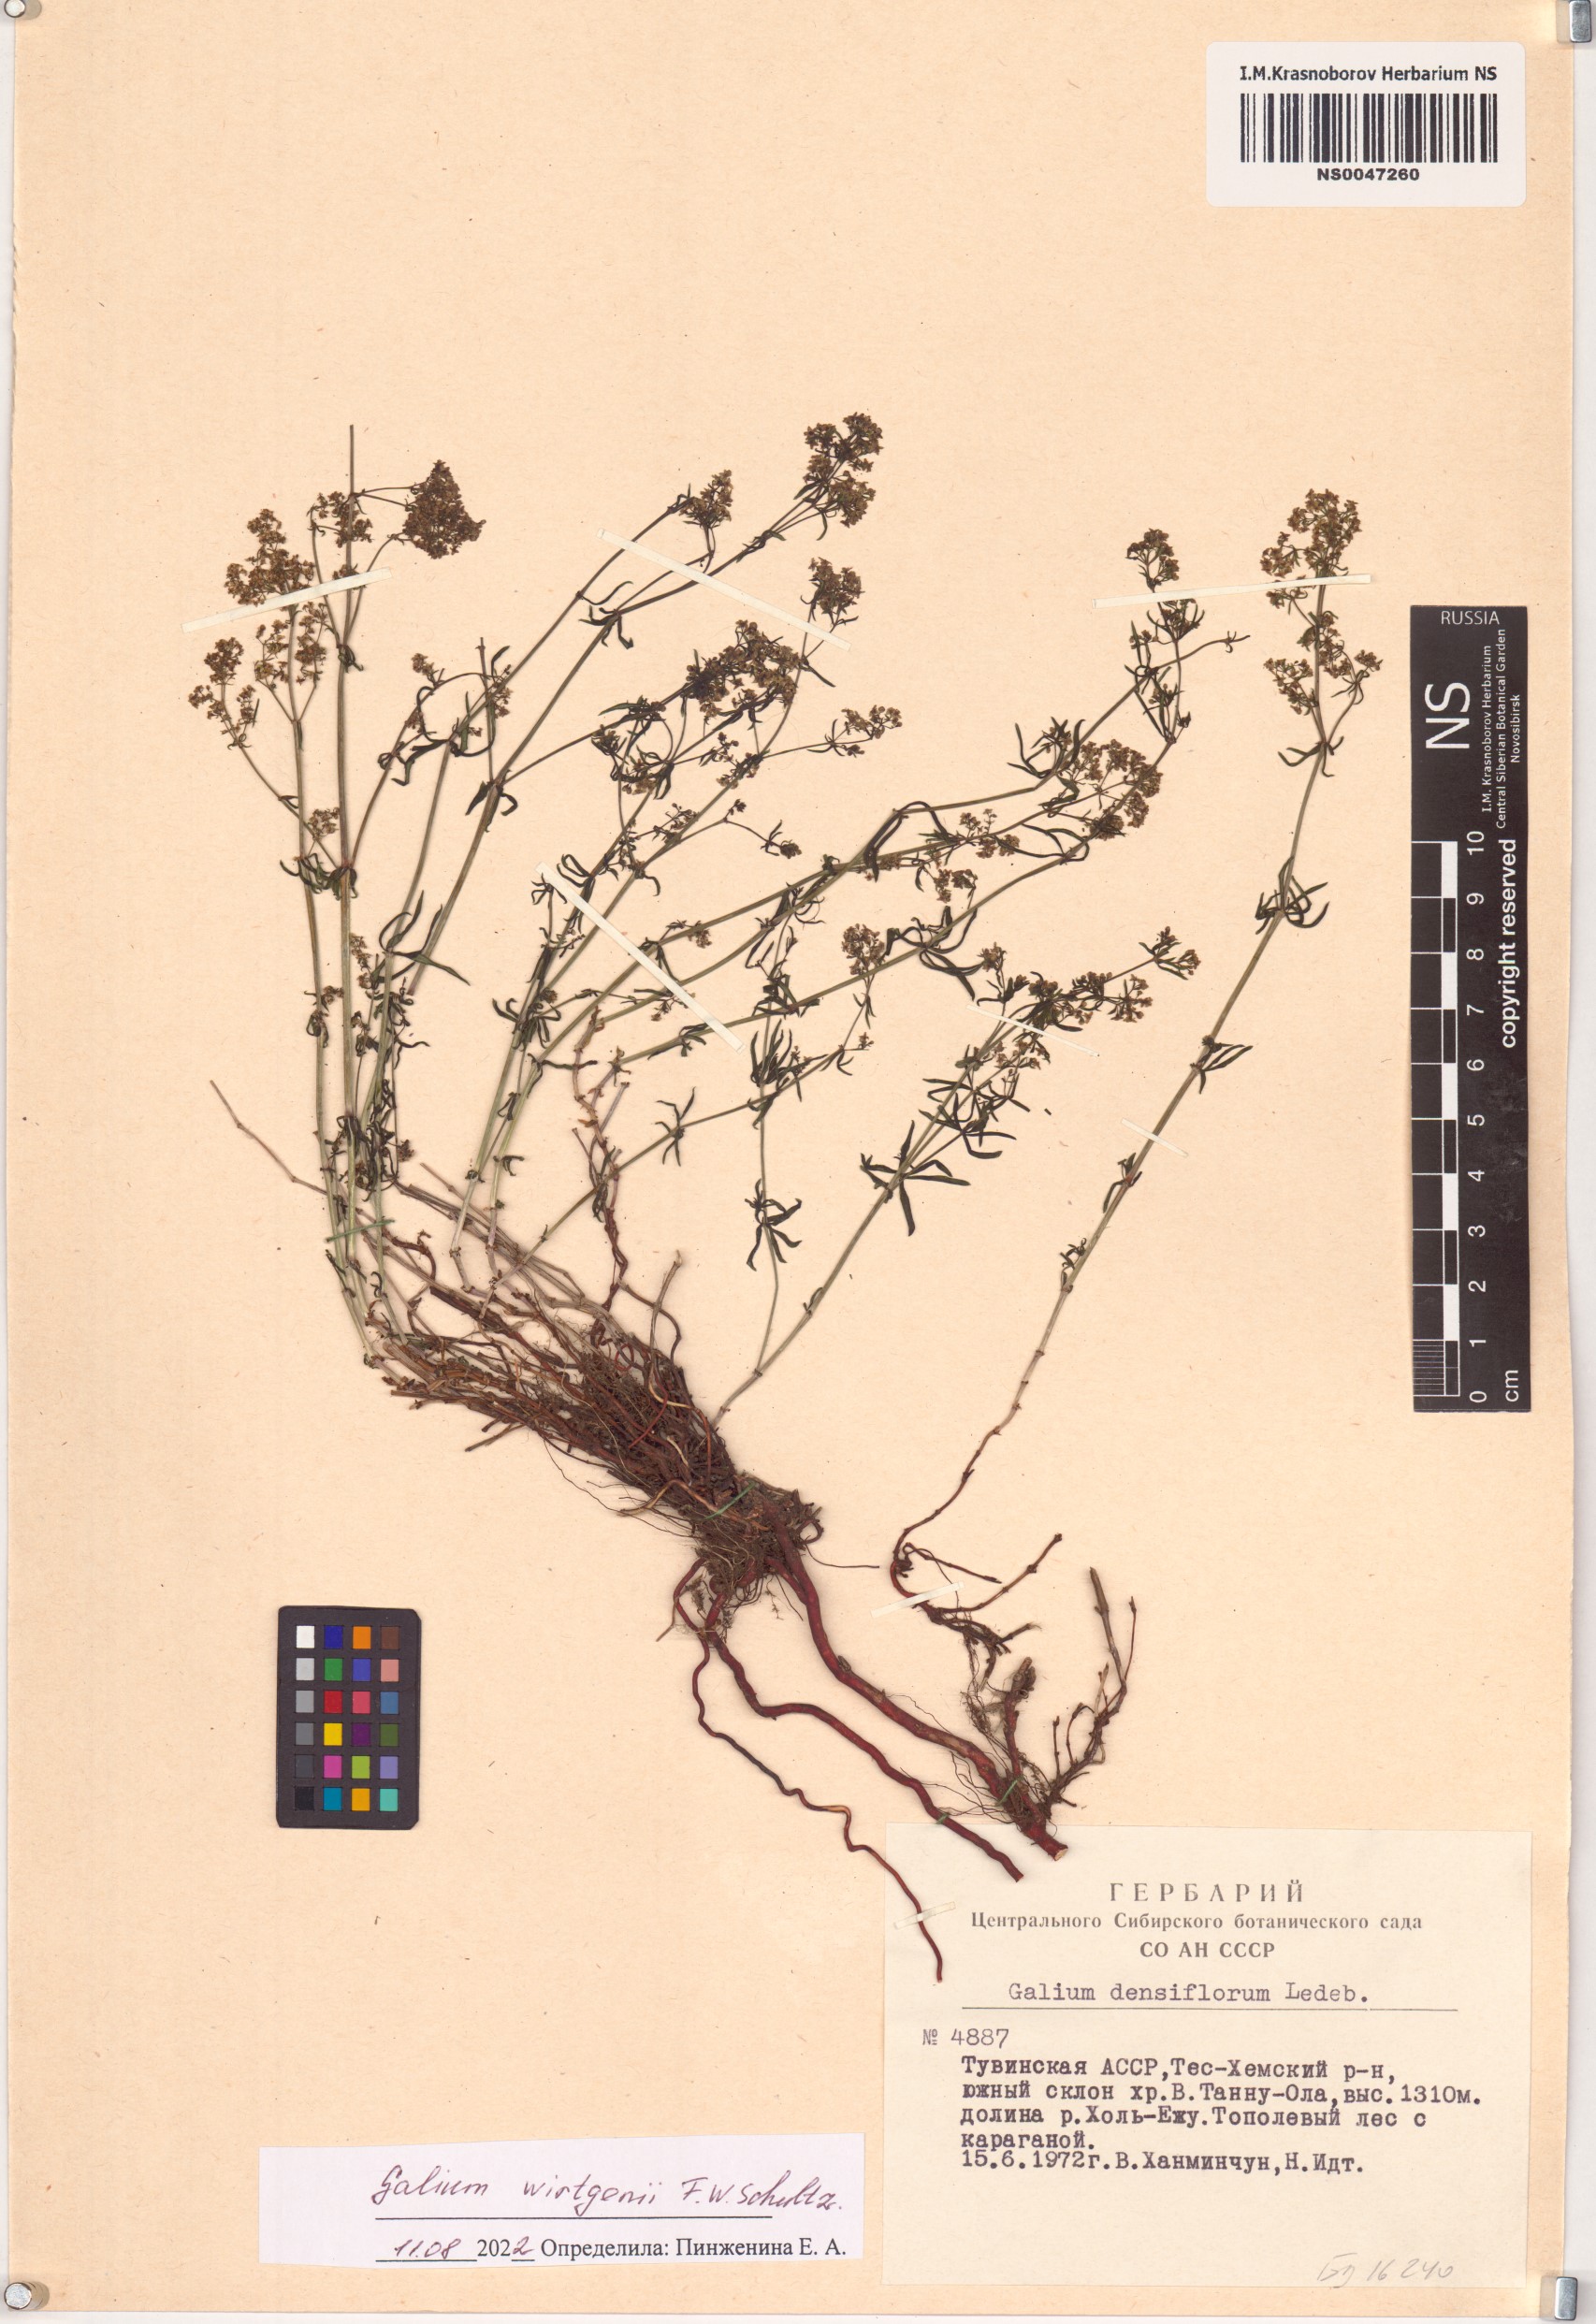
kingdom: Plantae
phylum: Tracheophyta
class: Magnoliopsida
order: Gentianales
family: Rubiaceae
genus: Galium
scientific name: Galium verum
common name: Lady's bedstraw
